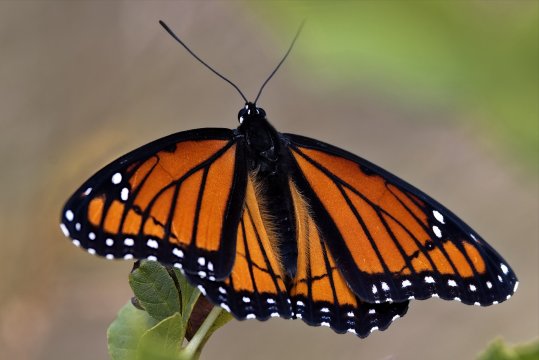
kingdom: Animalia
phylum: Arthropoda
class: Insecta
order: Lepidoptera
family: Nymphalidae
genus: Limenitis
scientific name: Limenitis archippus
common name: Viceroy
